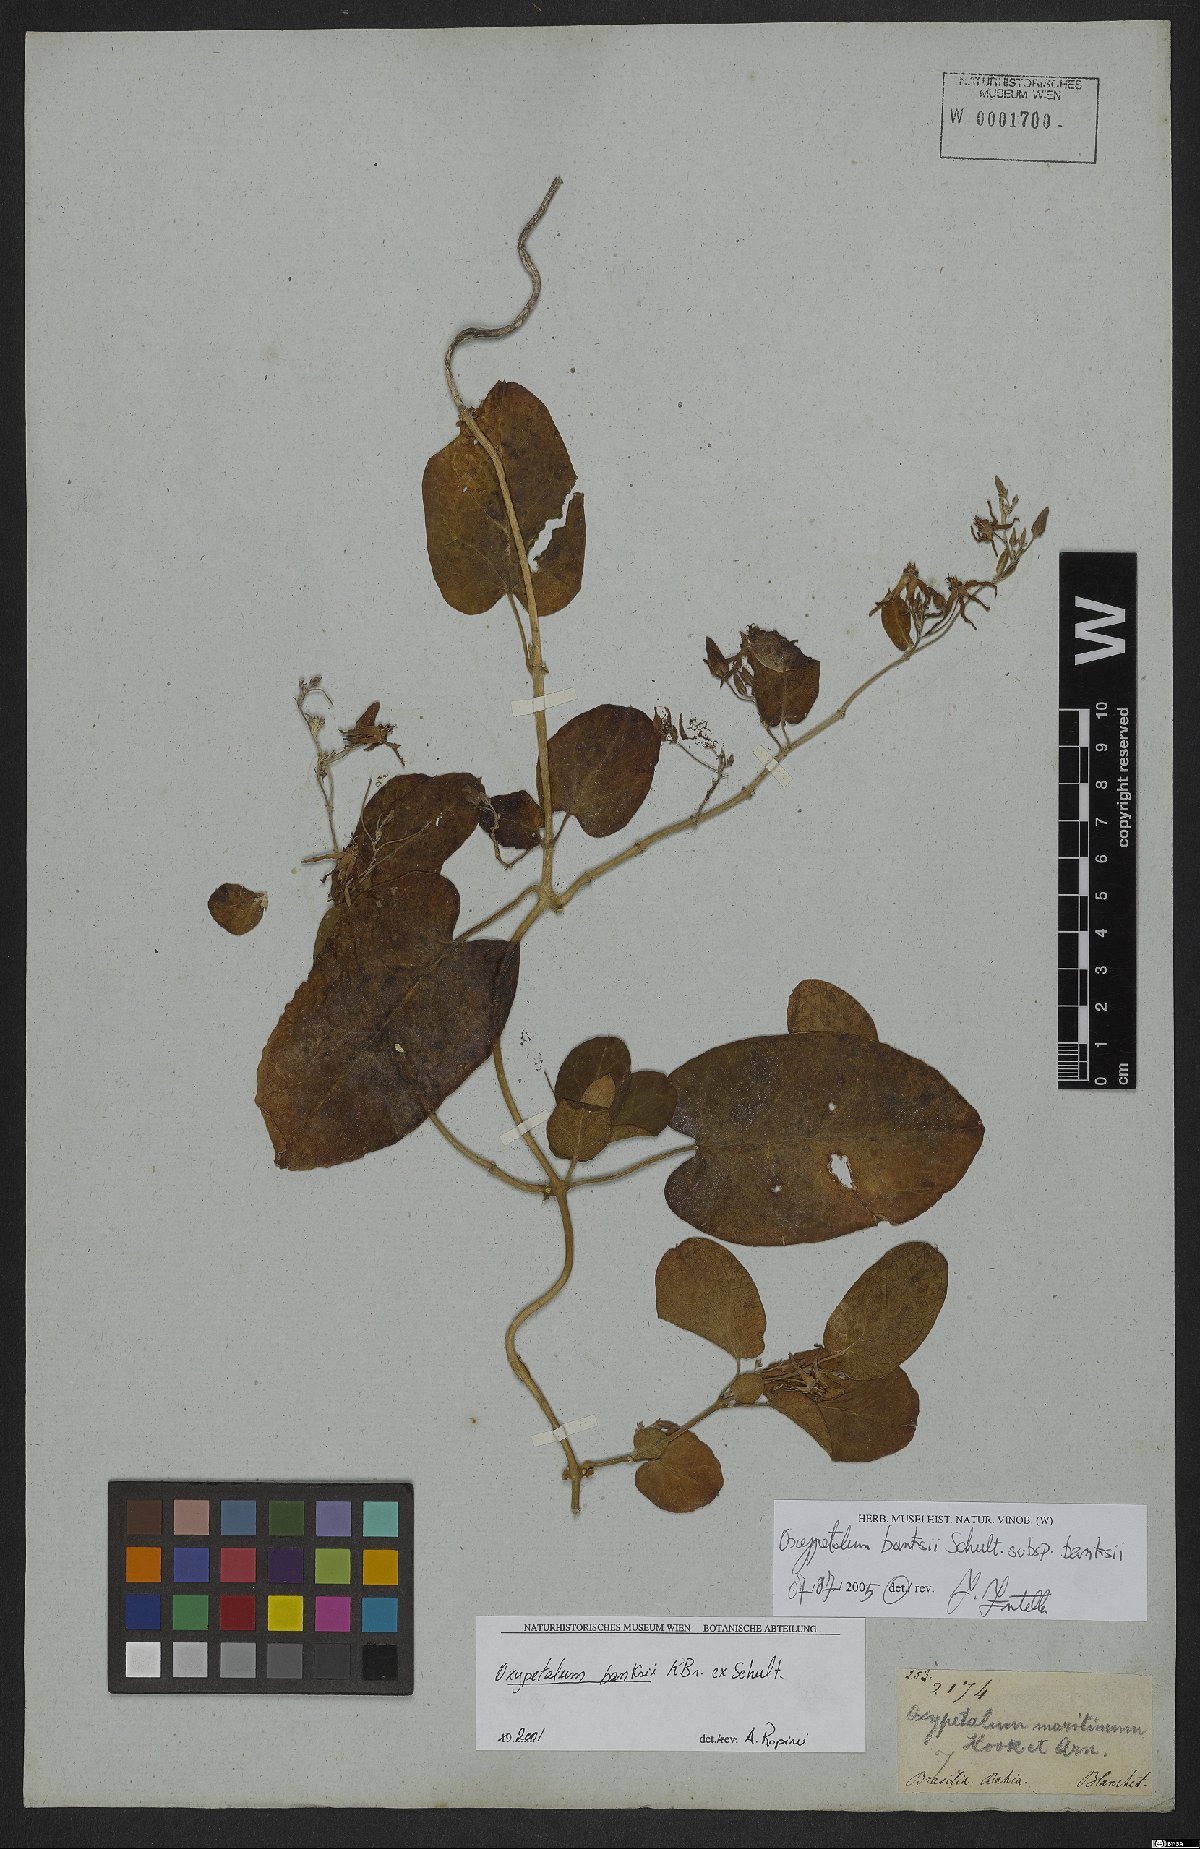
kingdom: Plantae
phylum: Tracheophyta
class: Magnoliopsida
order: Gentianales
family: Apocynaceae
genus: Oxypetalum
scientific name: Oxypetalum banksii
